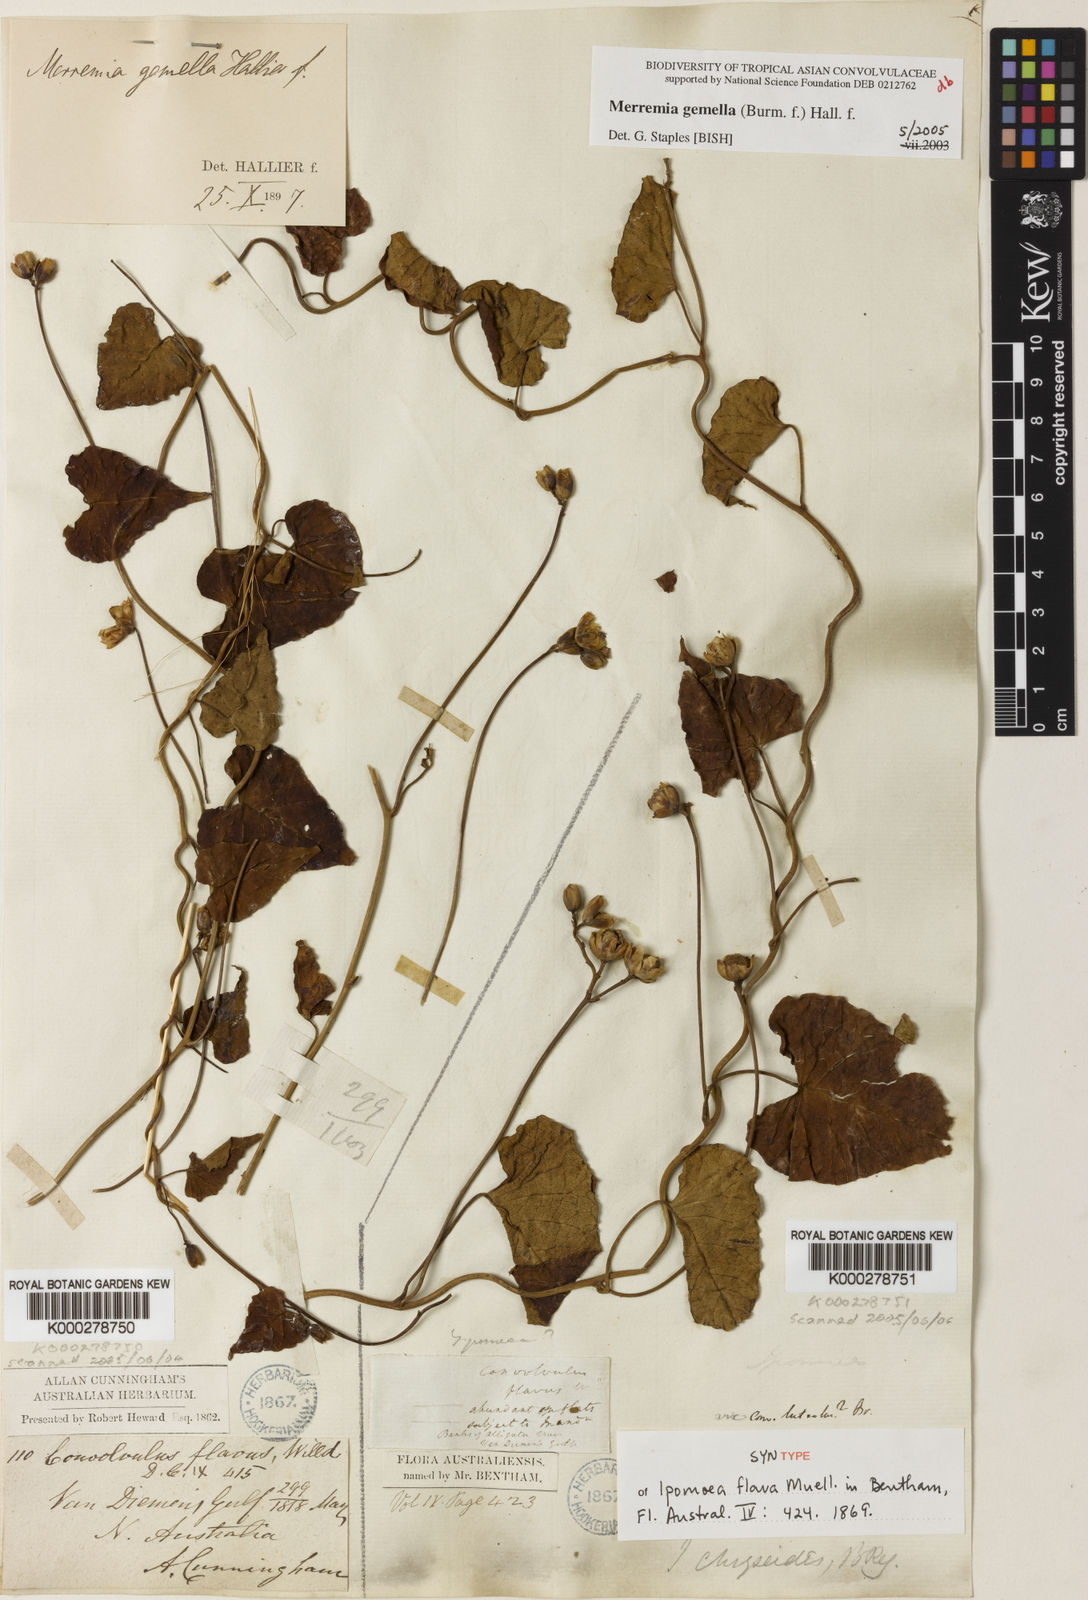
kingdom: Plantae
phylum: Tracheophyta
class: Magnoliopsida
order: Solanales
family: Convolvulaceae
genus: Merremia
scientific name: Merremia gemella
